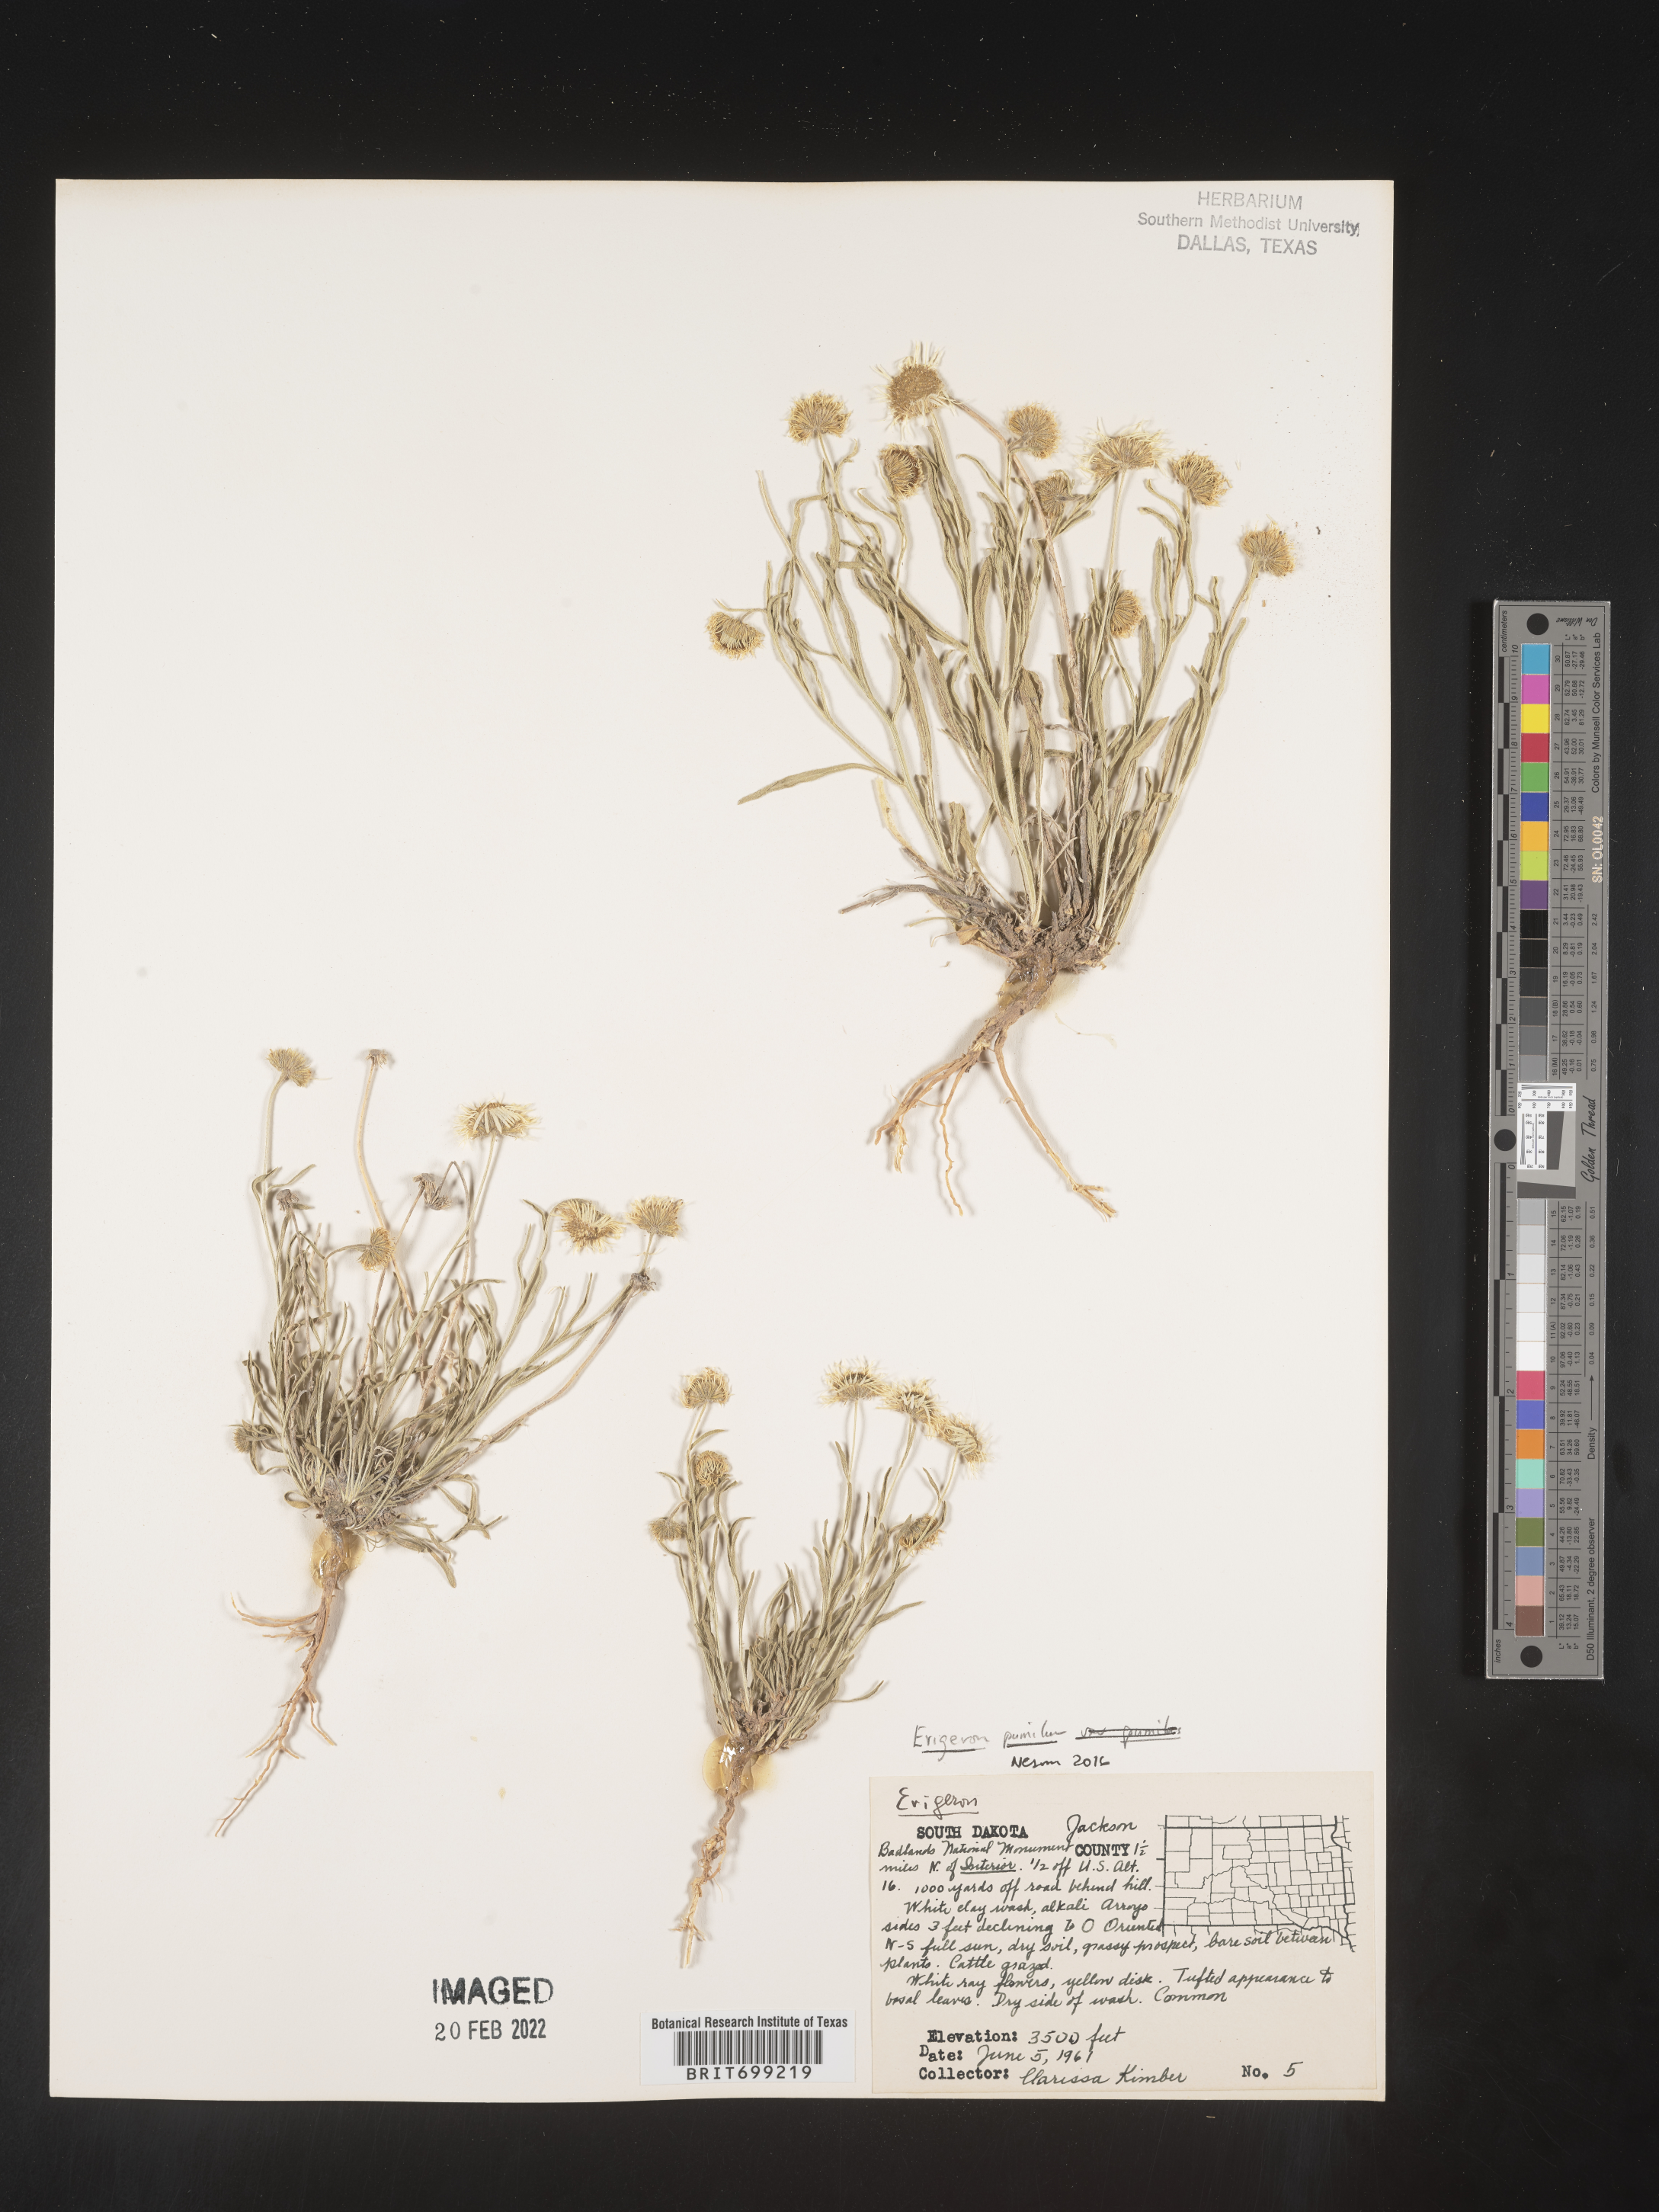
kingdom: Plantae
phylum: Tracheophyta
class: Magnoliopsida
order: Asterales
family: Asteraceae
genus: Erigeron
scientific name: Erigeron pumilus
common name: Shaggy fleabane
